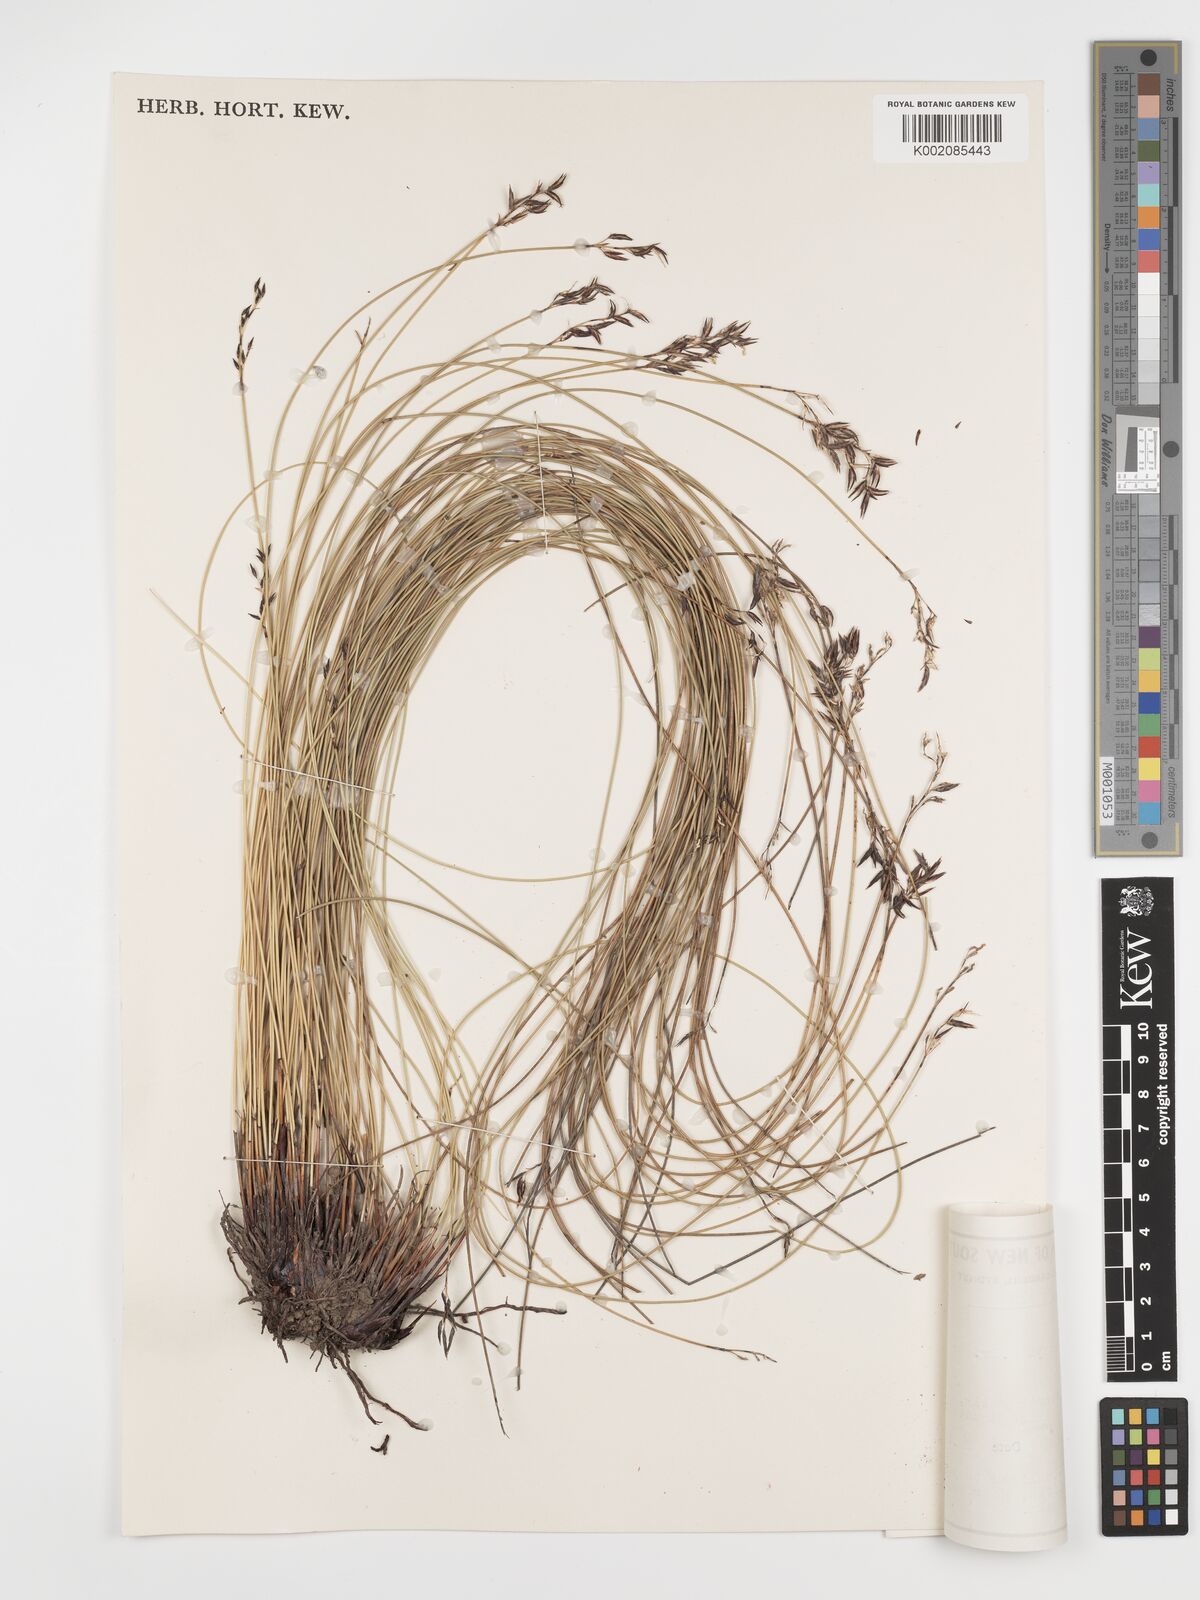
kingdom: Plantae
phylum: Tracheophyta
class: Liliopsida
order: Poales
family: Cyperaceae
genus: Schoenus
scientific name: Schoenus melanostachys
